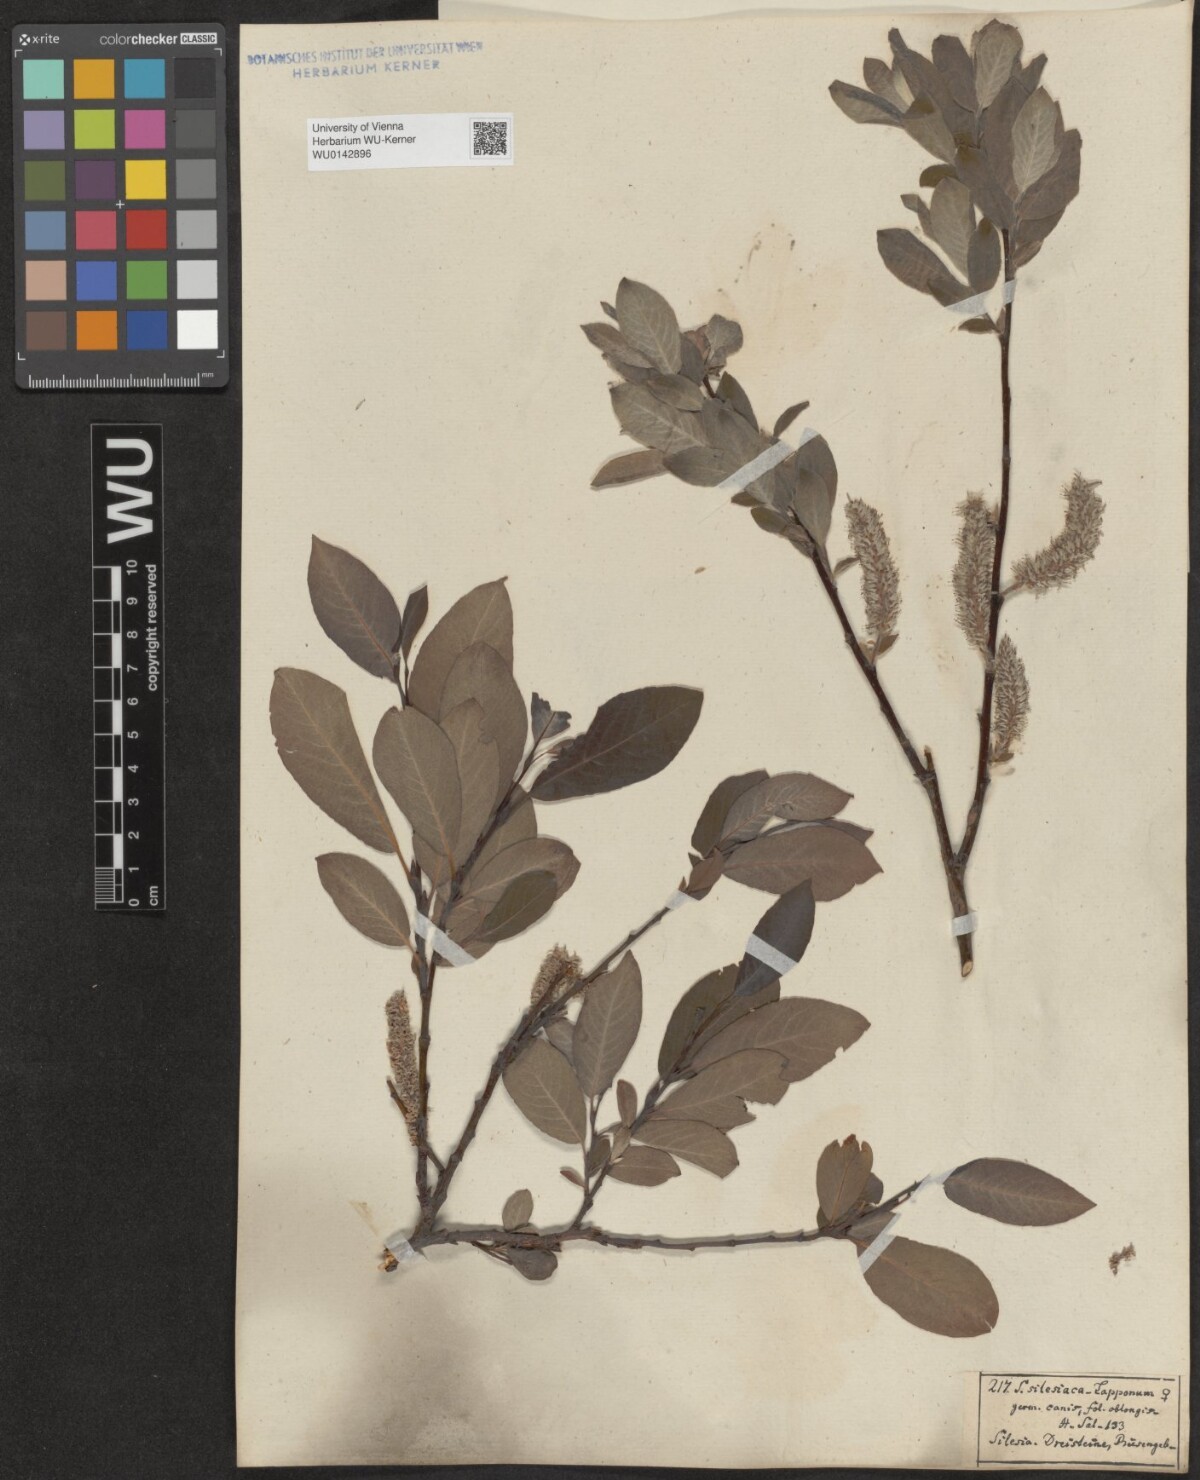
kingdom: Plantae
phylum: Tracheophyta
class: Magnoliopsida
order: Malpighiales
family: Salicaceae
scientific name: Salicaceae
